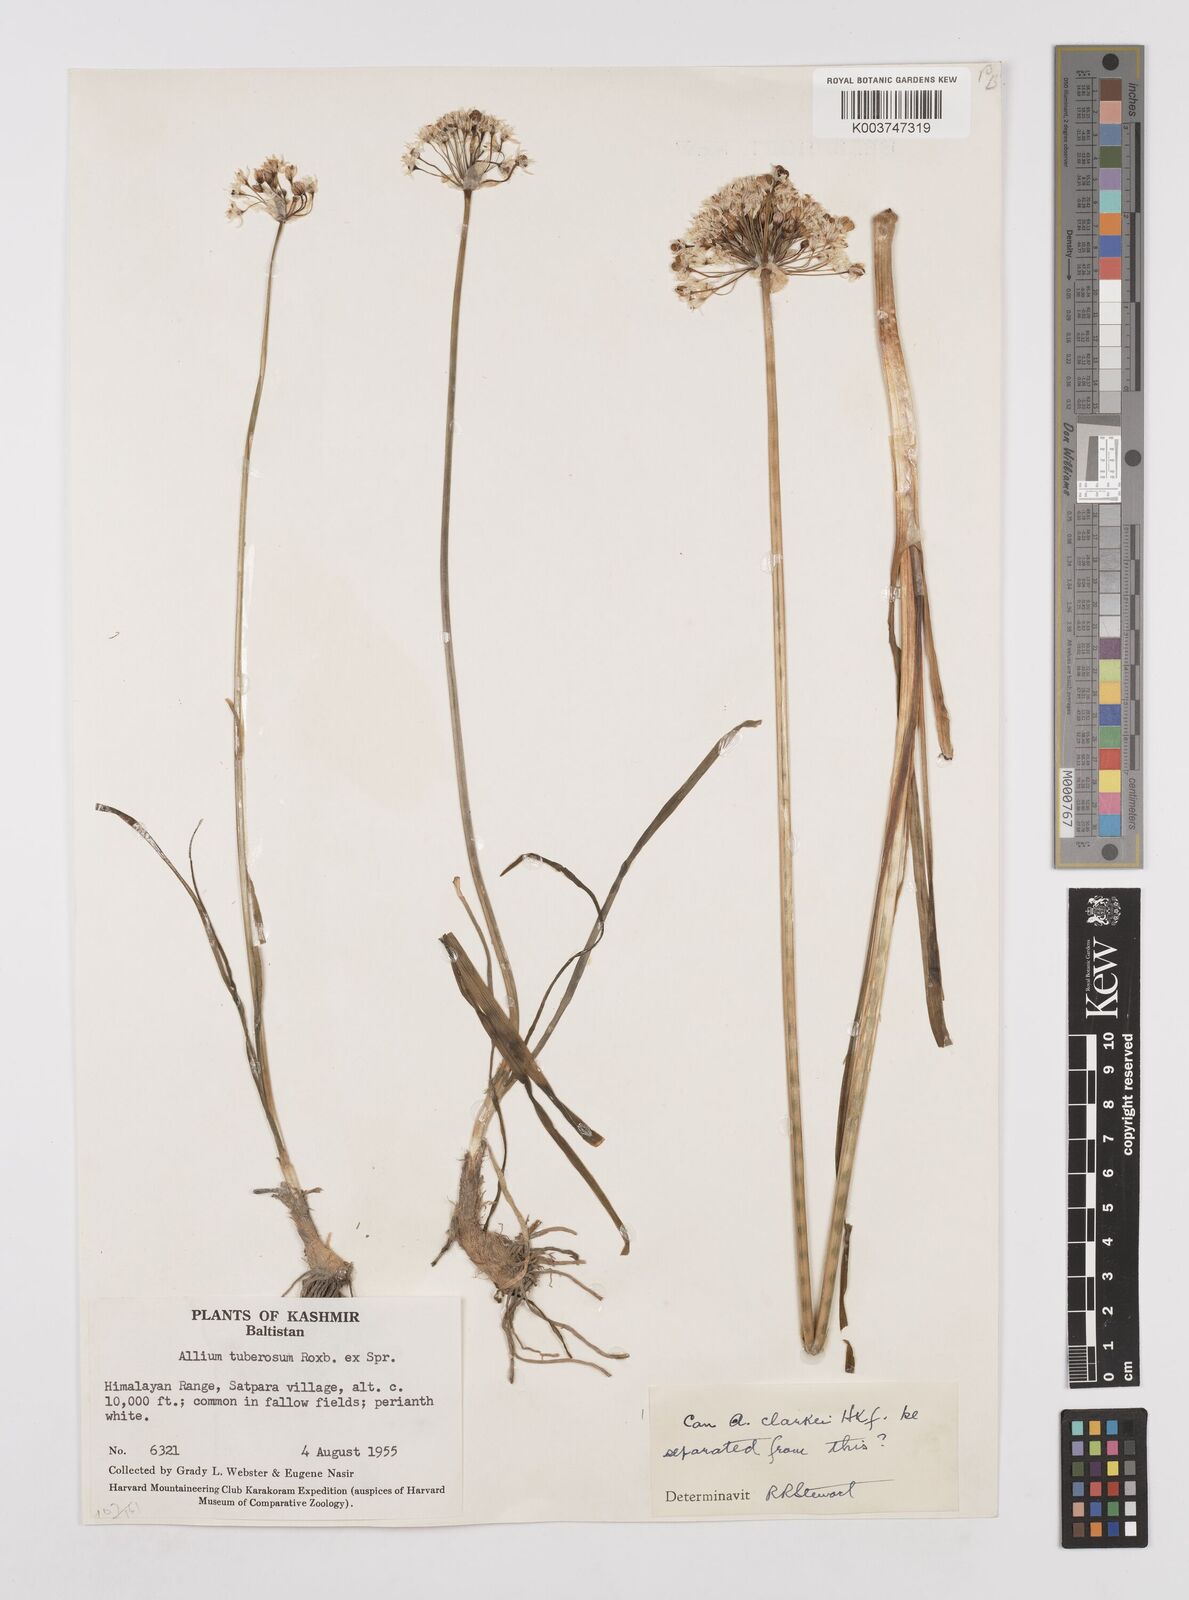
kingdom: Plantae
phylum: Tracheophyta
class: Liliopsida
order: Asparagales
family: Amaryllidaceae
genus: Allium
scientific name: Allium tuberosum
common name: Chinese chives
